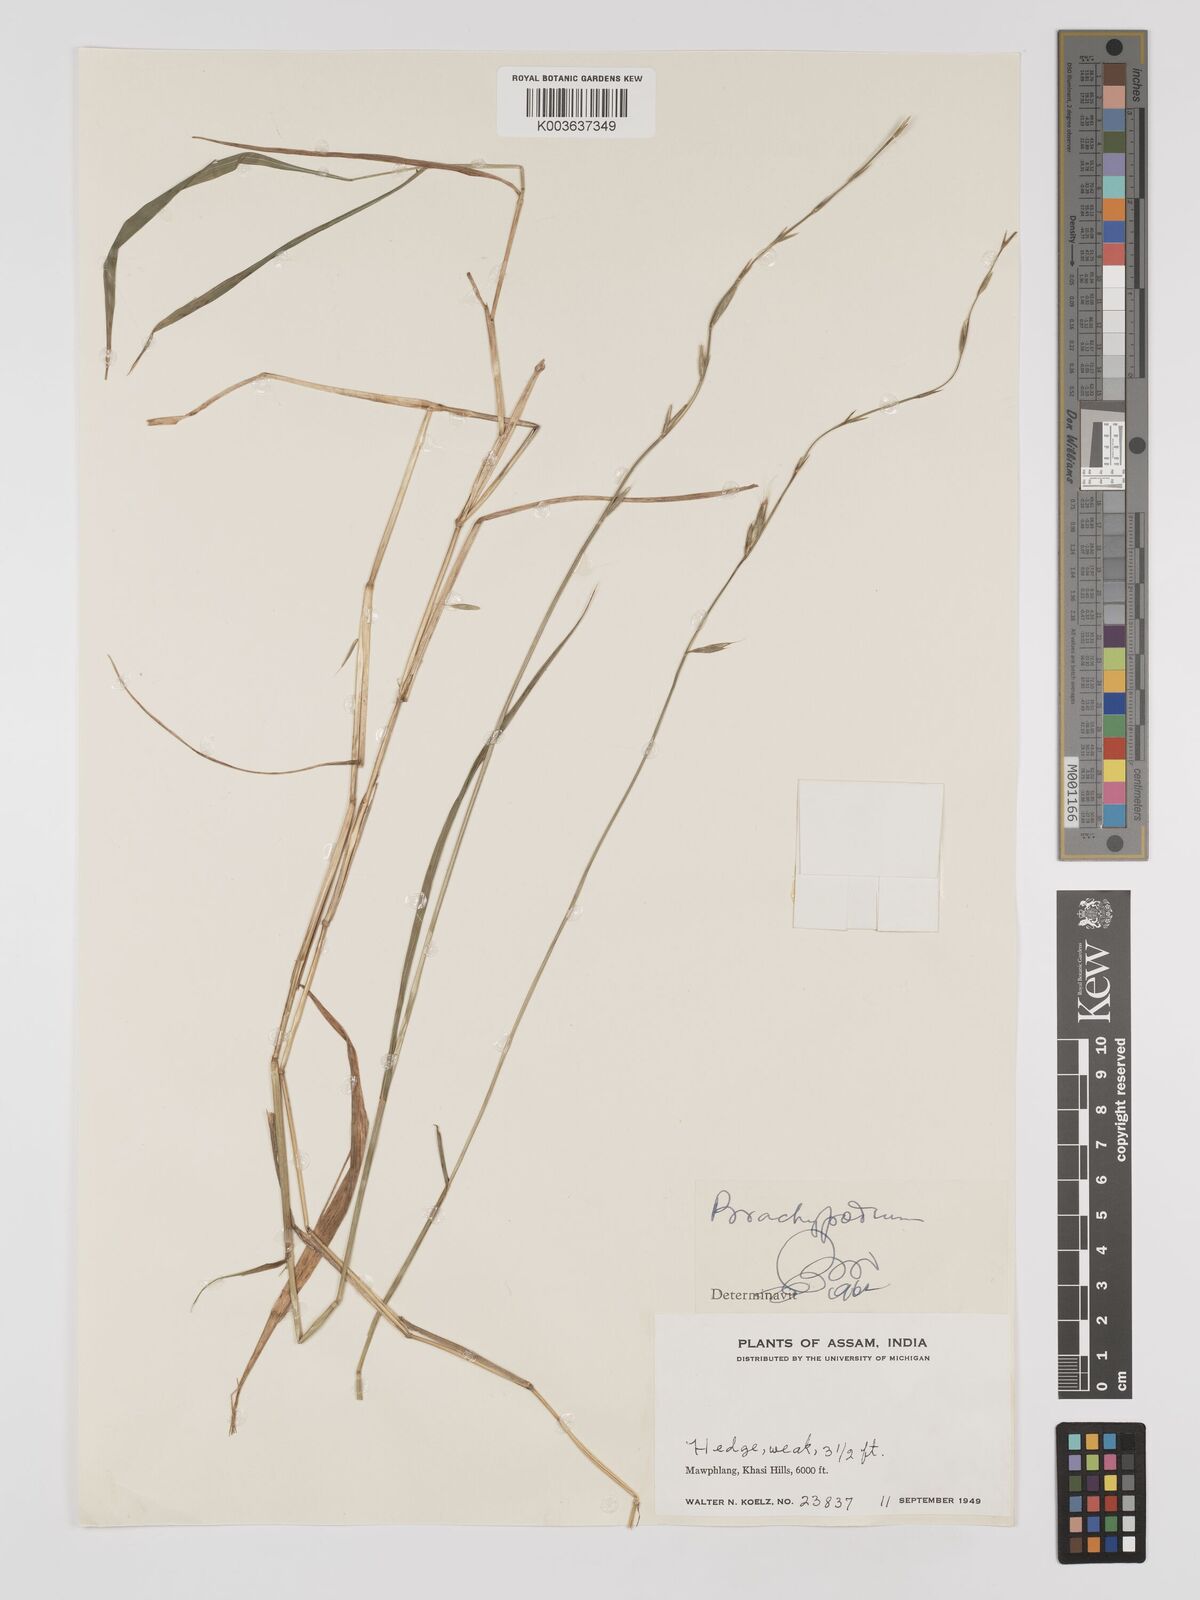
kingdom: Plantae
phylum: Tracheophyta
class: Liliopsida
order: Poales
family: Poaceae
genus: Brachypodium
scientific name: Brachypodium
